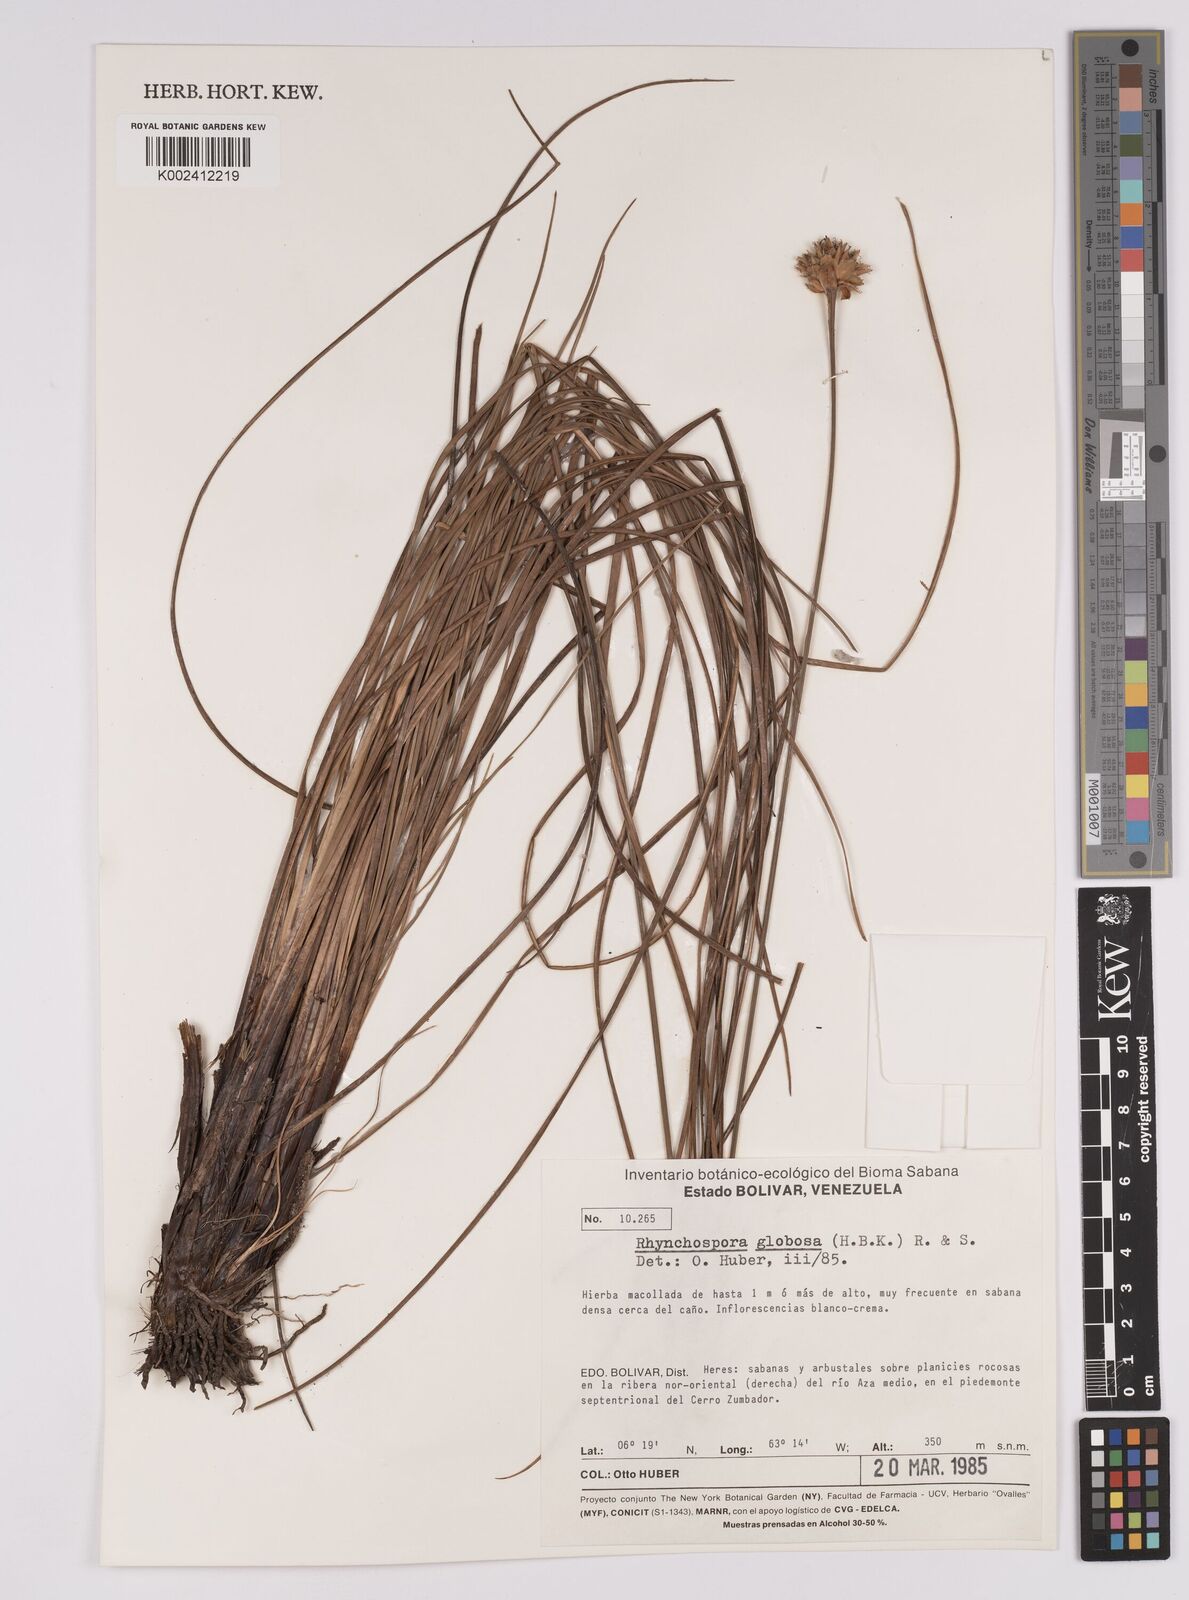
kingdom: Plantae
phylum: Tracheophyta
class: Liliopsida
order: Poales
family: Cyperaceae
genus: Rhynchospora
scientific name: Rhynchospora barbata
